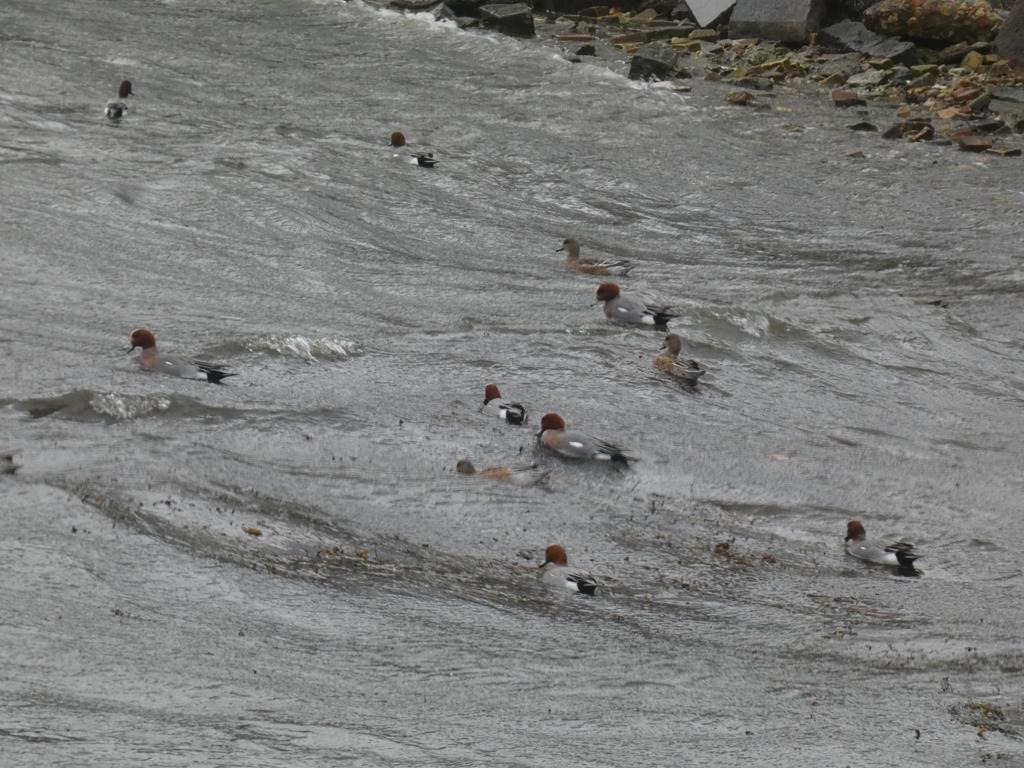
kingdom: Animalia
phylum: Chordata
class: Aves
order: Anseriformes
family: Anatidae
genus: Mareca
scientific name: Mareca penelope
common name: Pibeand
